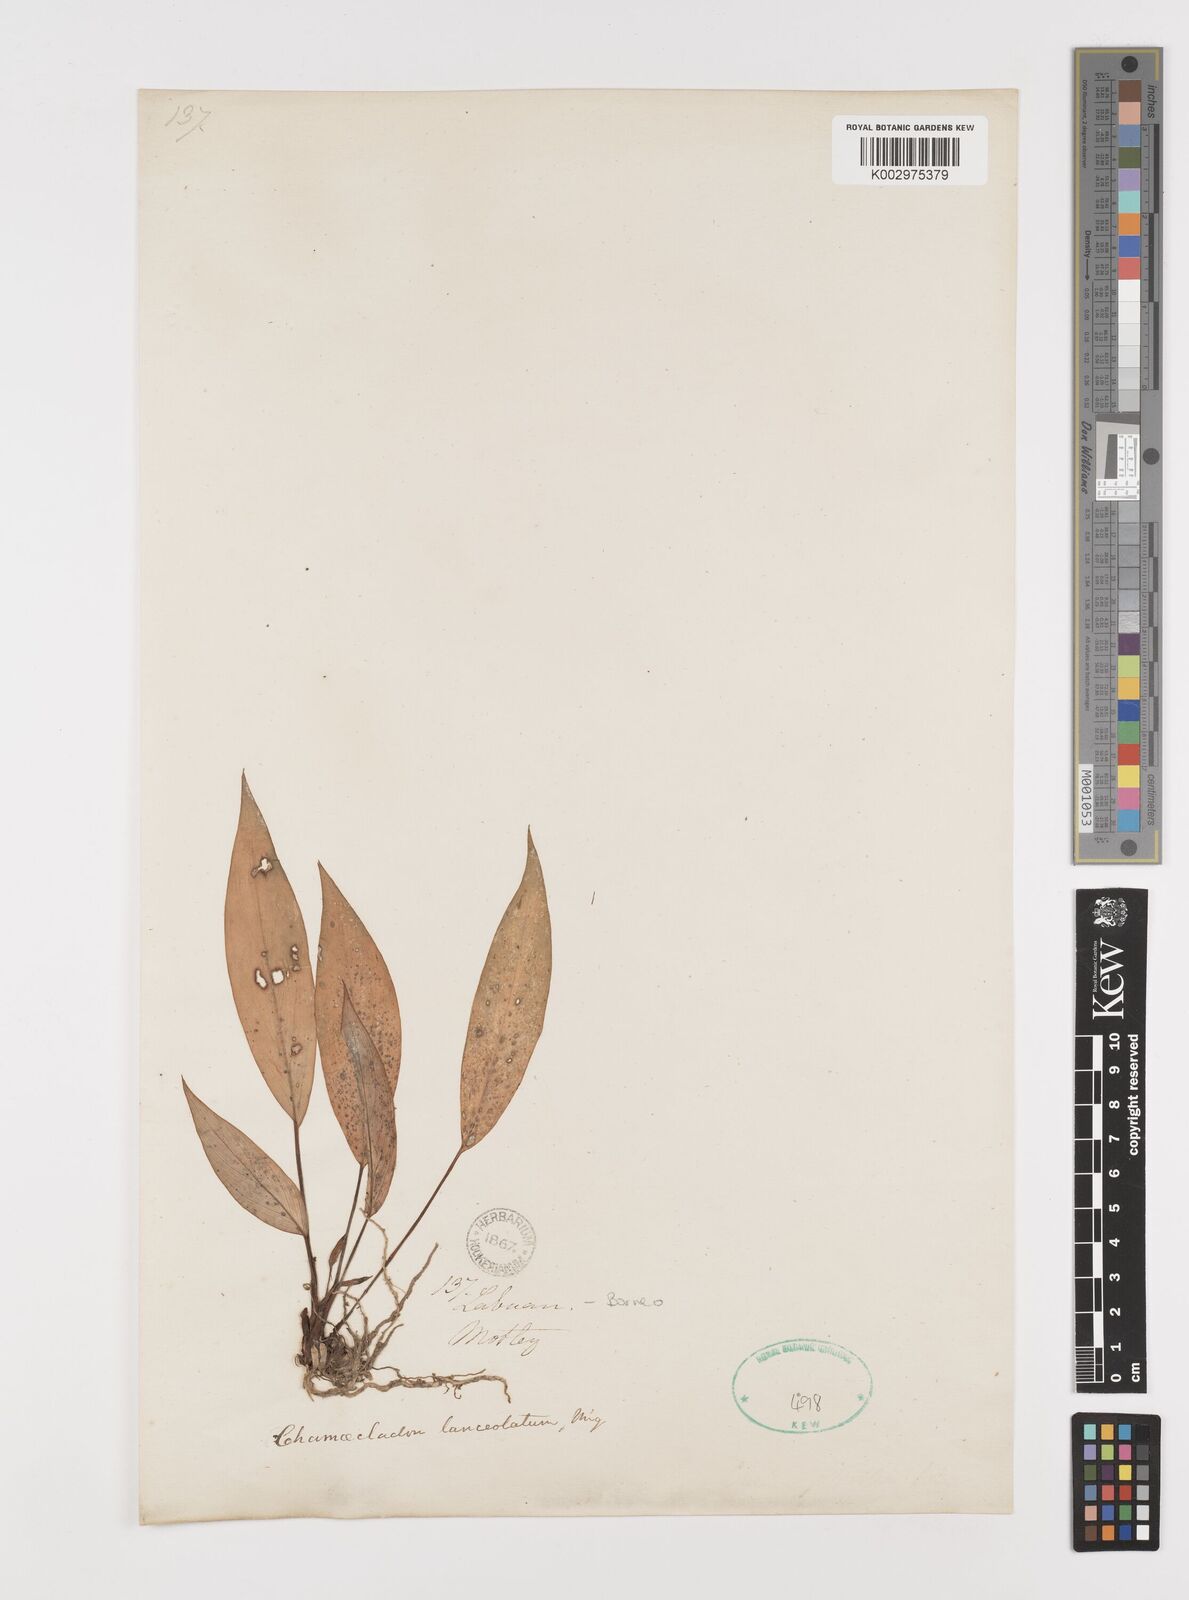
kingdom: Plantae
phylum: Tracheophyta
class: Liliopsida
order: Alismatales
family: Araceae
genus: Homalomena
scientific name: Homalomena humilis
